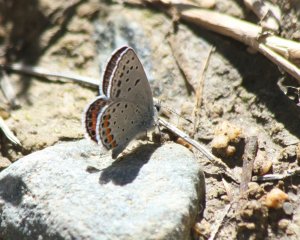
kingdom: Animalia
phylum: Arthropoda
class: Insecta
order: Lepidoptera
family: Lycaenidae
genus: Plebejus
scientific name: Plebejus acmon
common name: Acmon Blue
